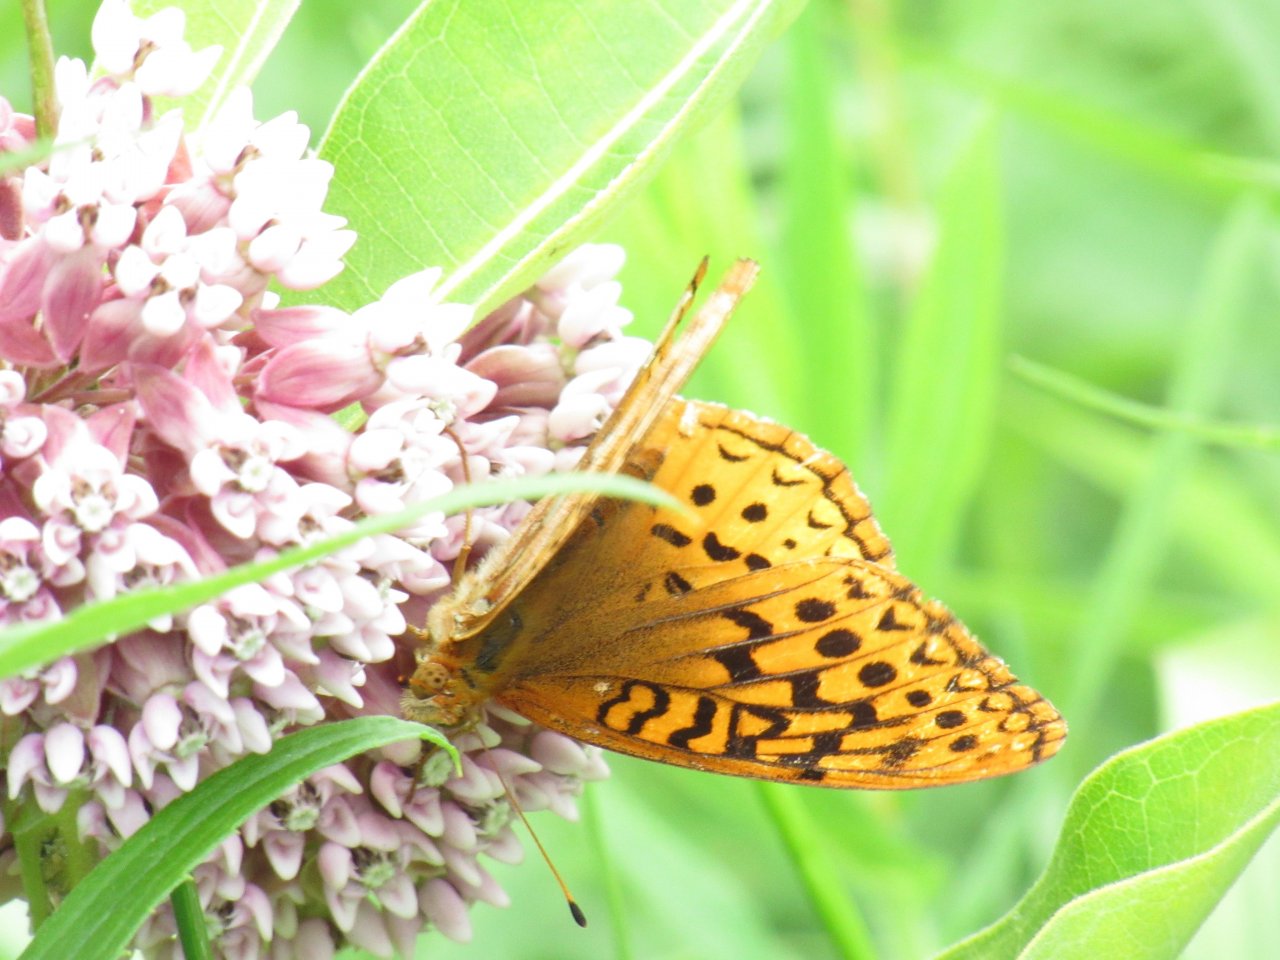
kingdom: Animalia
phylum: Arthropoda
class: Insecta
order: Lepidoptera
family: Nymphalidae
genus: Speyeria
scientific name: Speyeria cybele
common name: Great Spangled Fritillary
